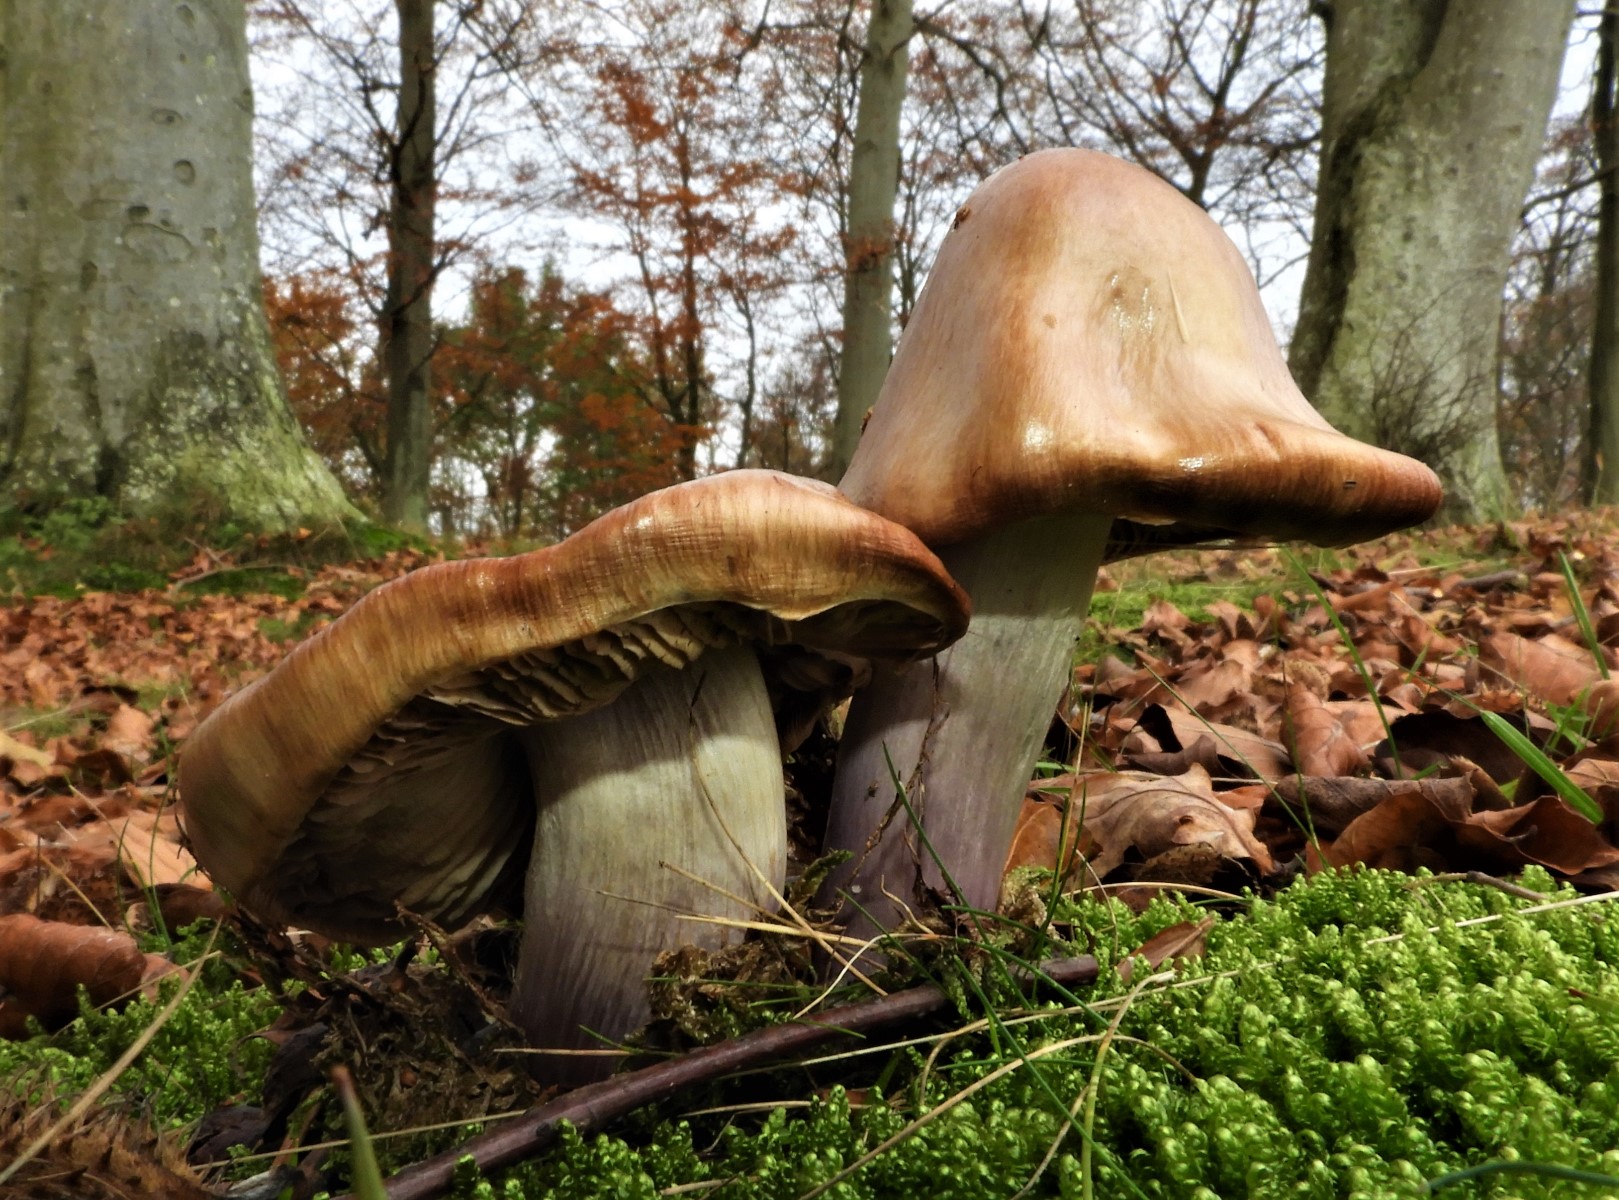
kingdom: Fungi
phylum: Basidiomycota
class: Agaricomycetes
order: Agaricales
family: Cortinariaceae
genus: Cortinarius
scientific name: Cortinarius elatior
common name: høj slørhat
